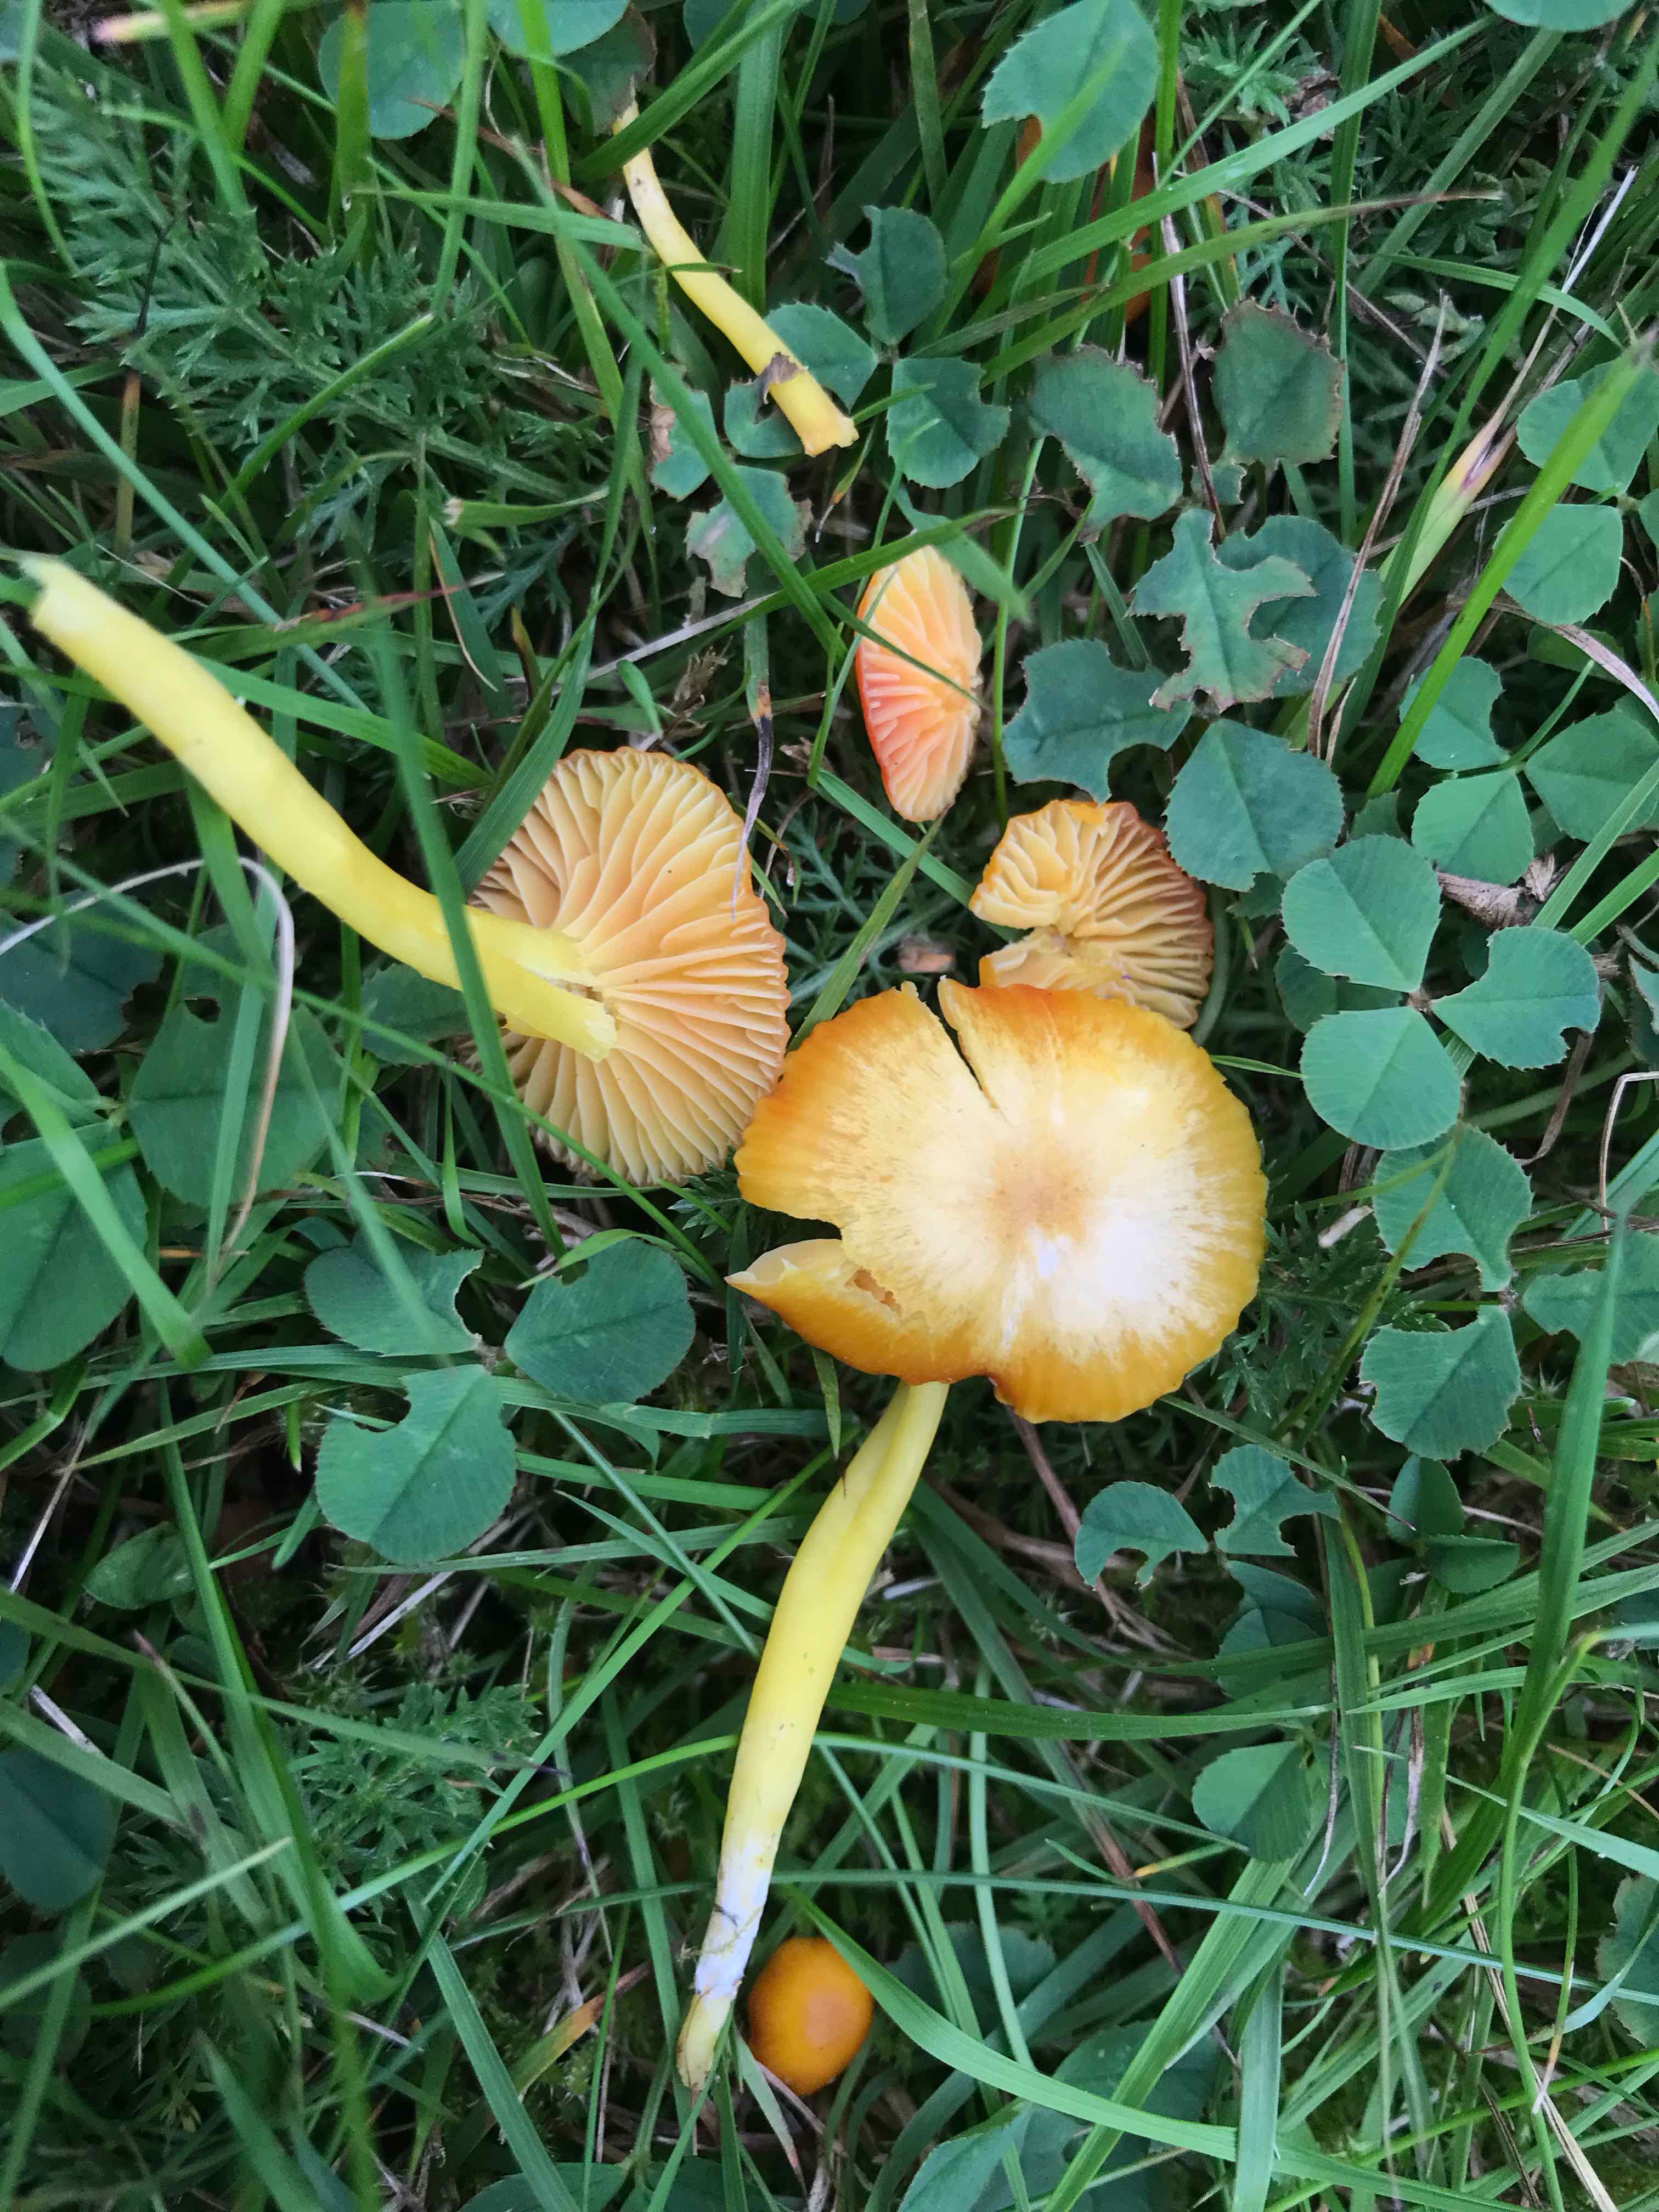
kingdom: Fungi
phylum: Basidiomycota
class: Agaricomycetes
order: Agaricales
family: Hygrophoraceae
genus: Hygrocybe
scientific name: Hygrocybe ceracea
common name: voksgul vokshat
